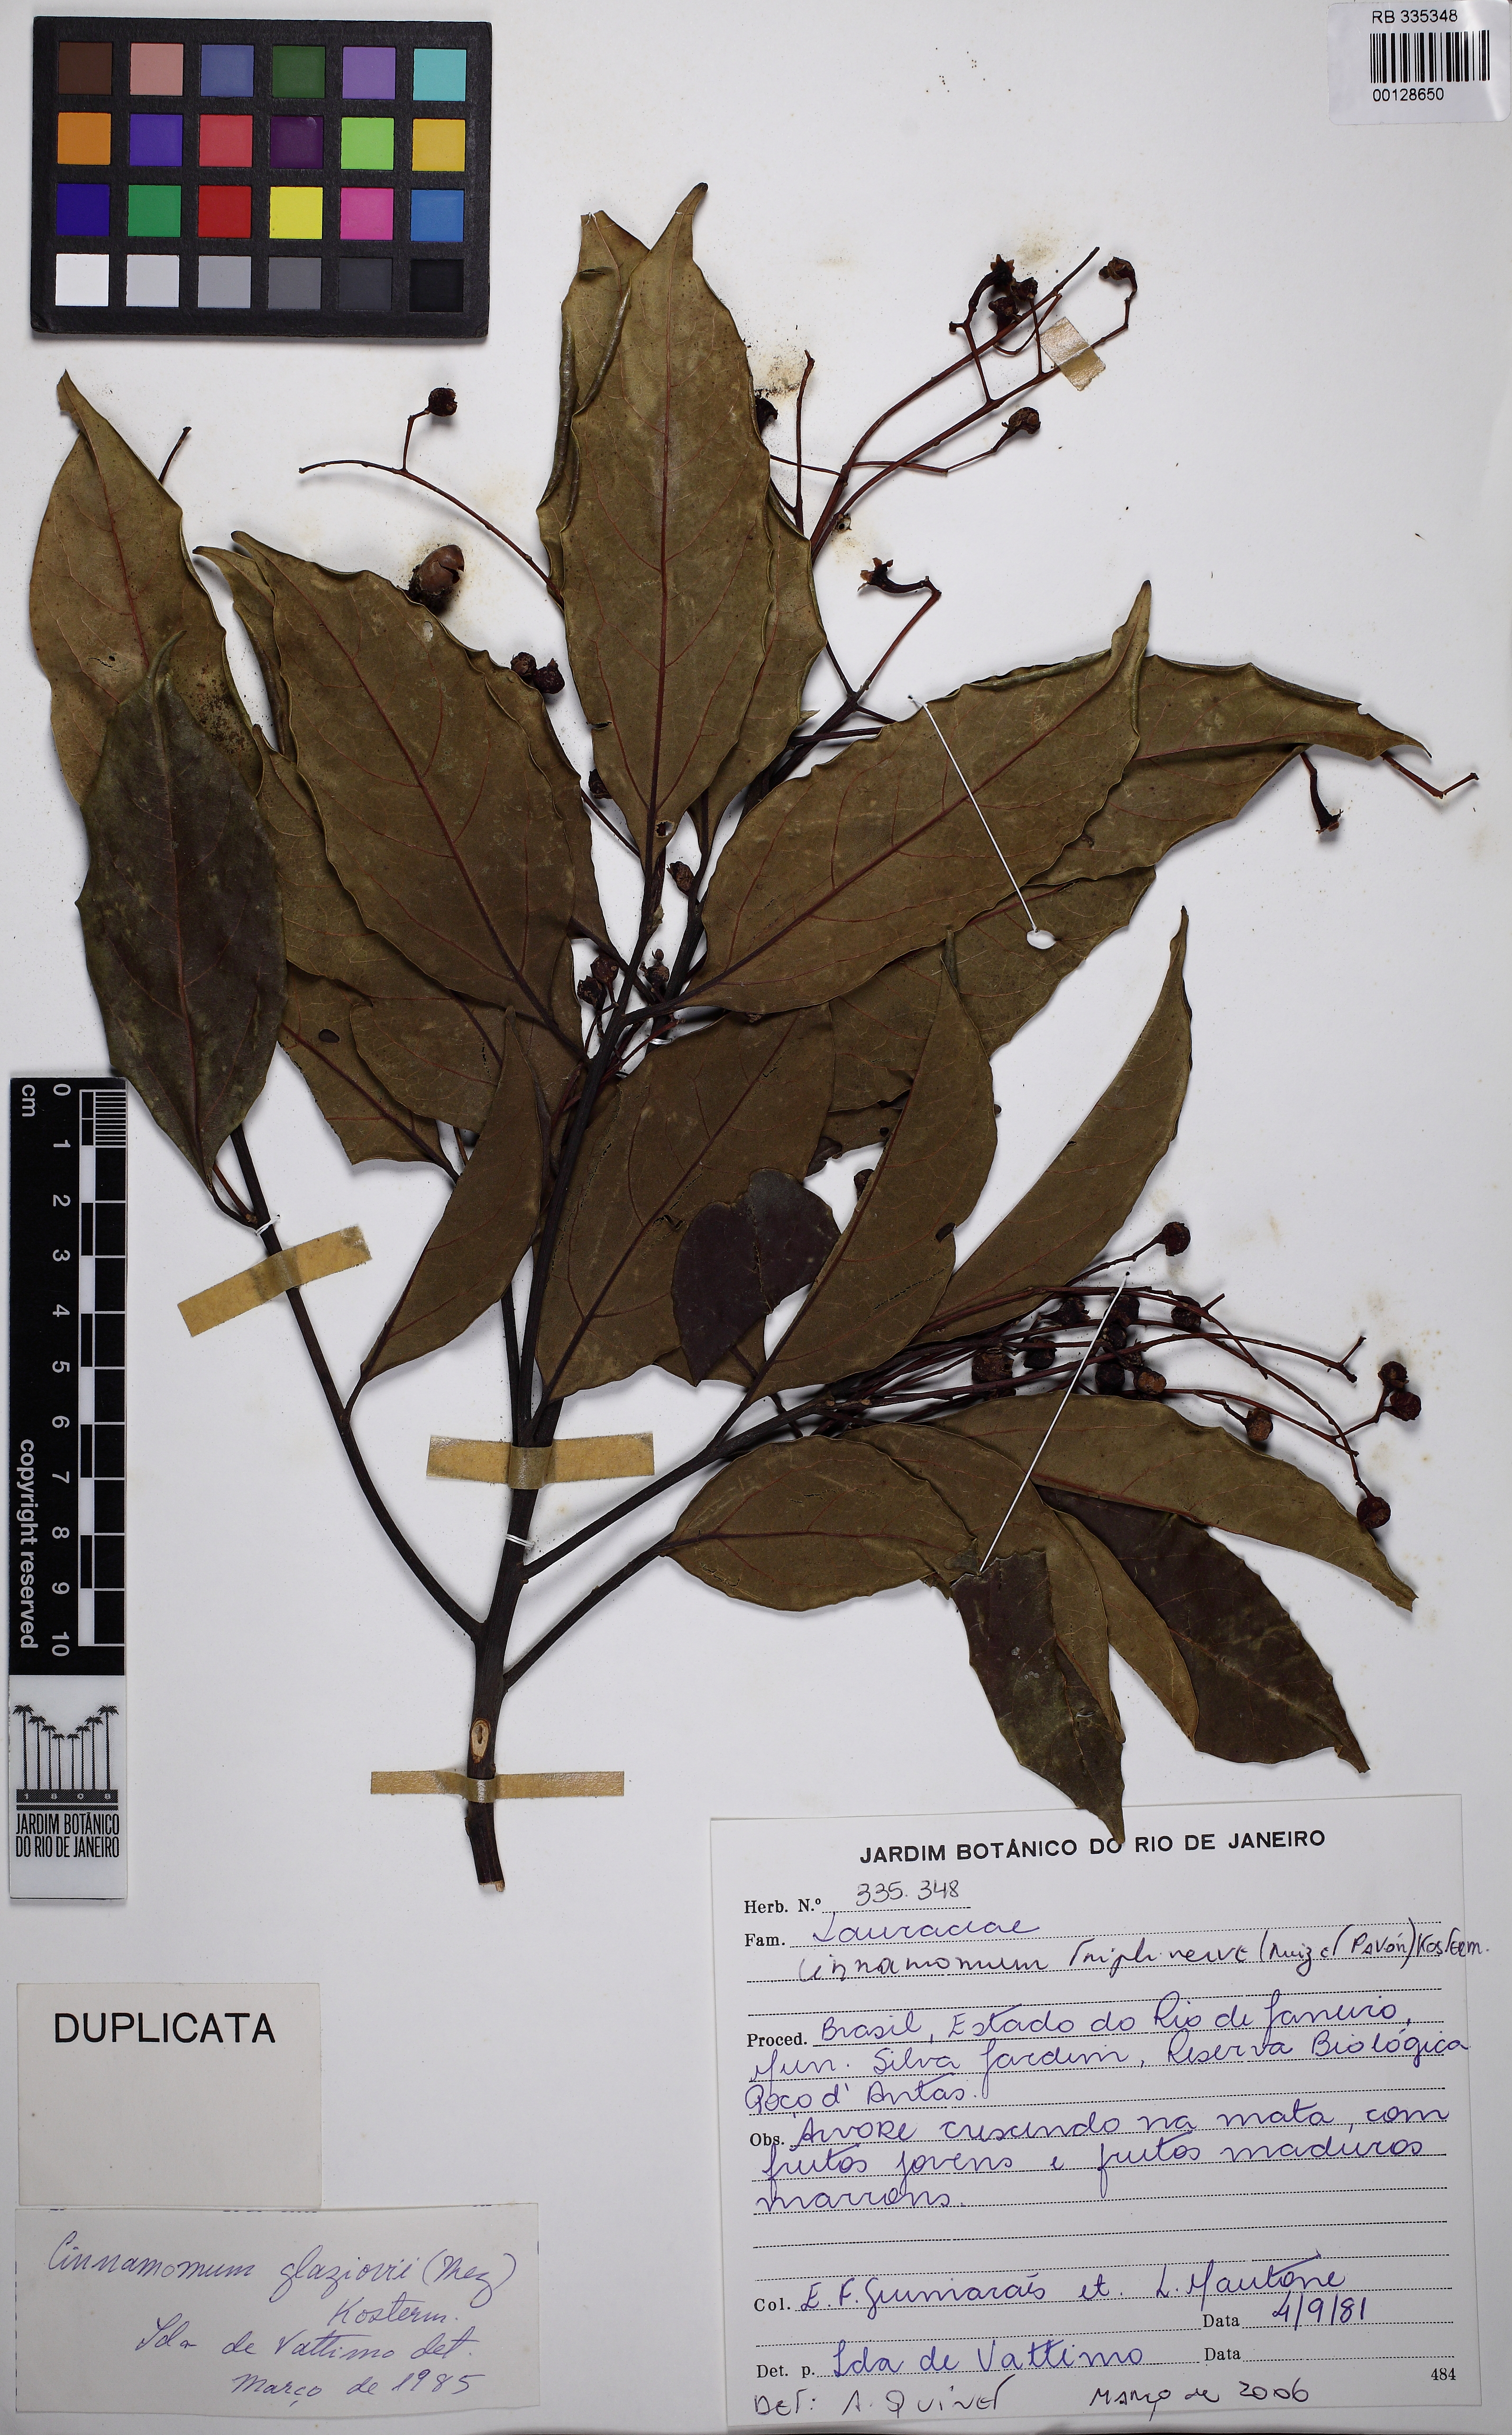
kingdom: Plantae
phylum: Tracheophyta
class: Magnoliopsida
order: Laurales
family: Lauraceae
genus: Aiouea
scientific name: Aiouea glaziovii
